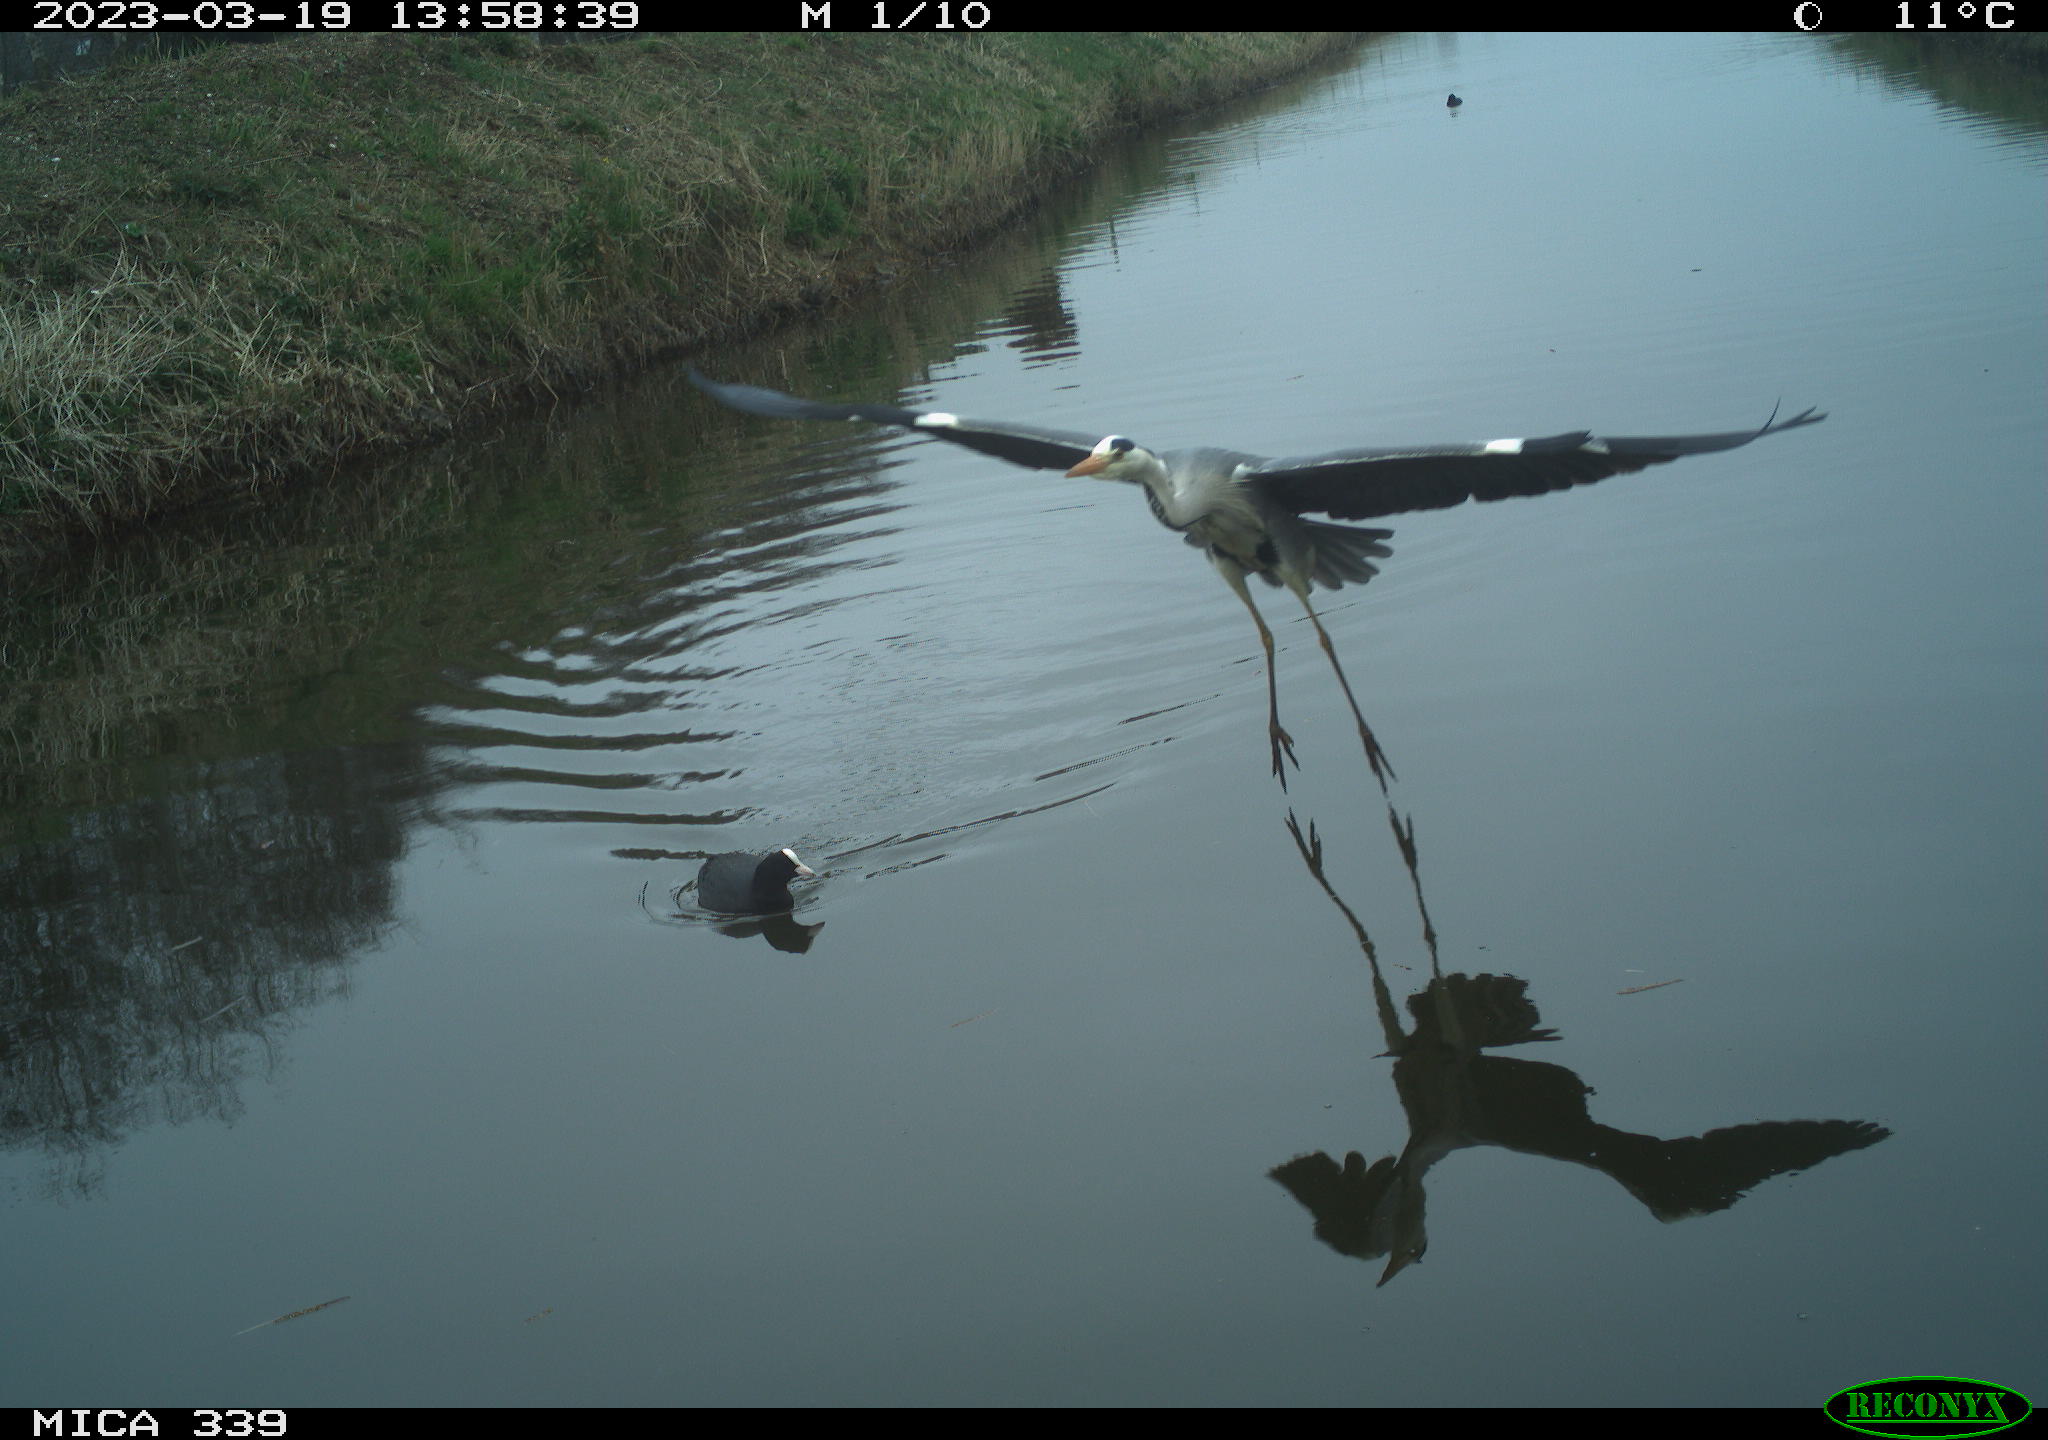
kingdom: Animalia
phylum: Chordata
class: Aves
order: Gruiformes
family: Rallidae
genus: Fulica
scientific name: Fulica atra
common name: Eurasian coot
